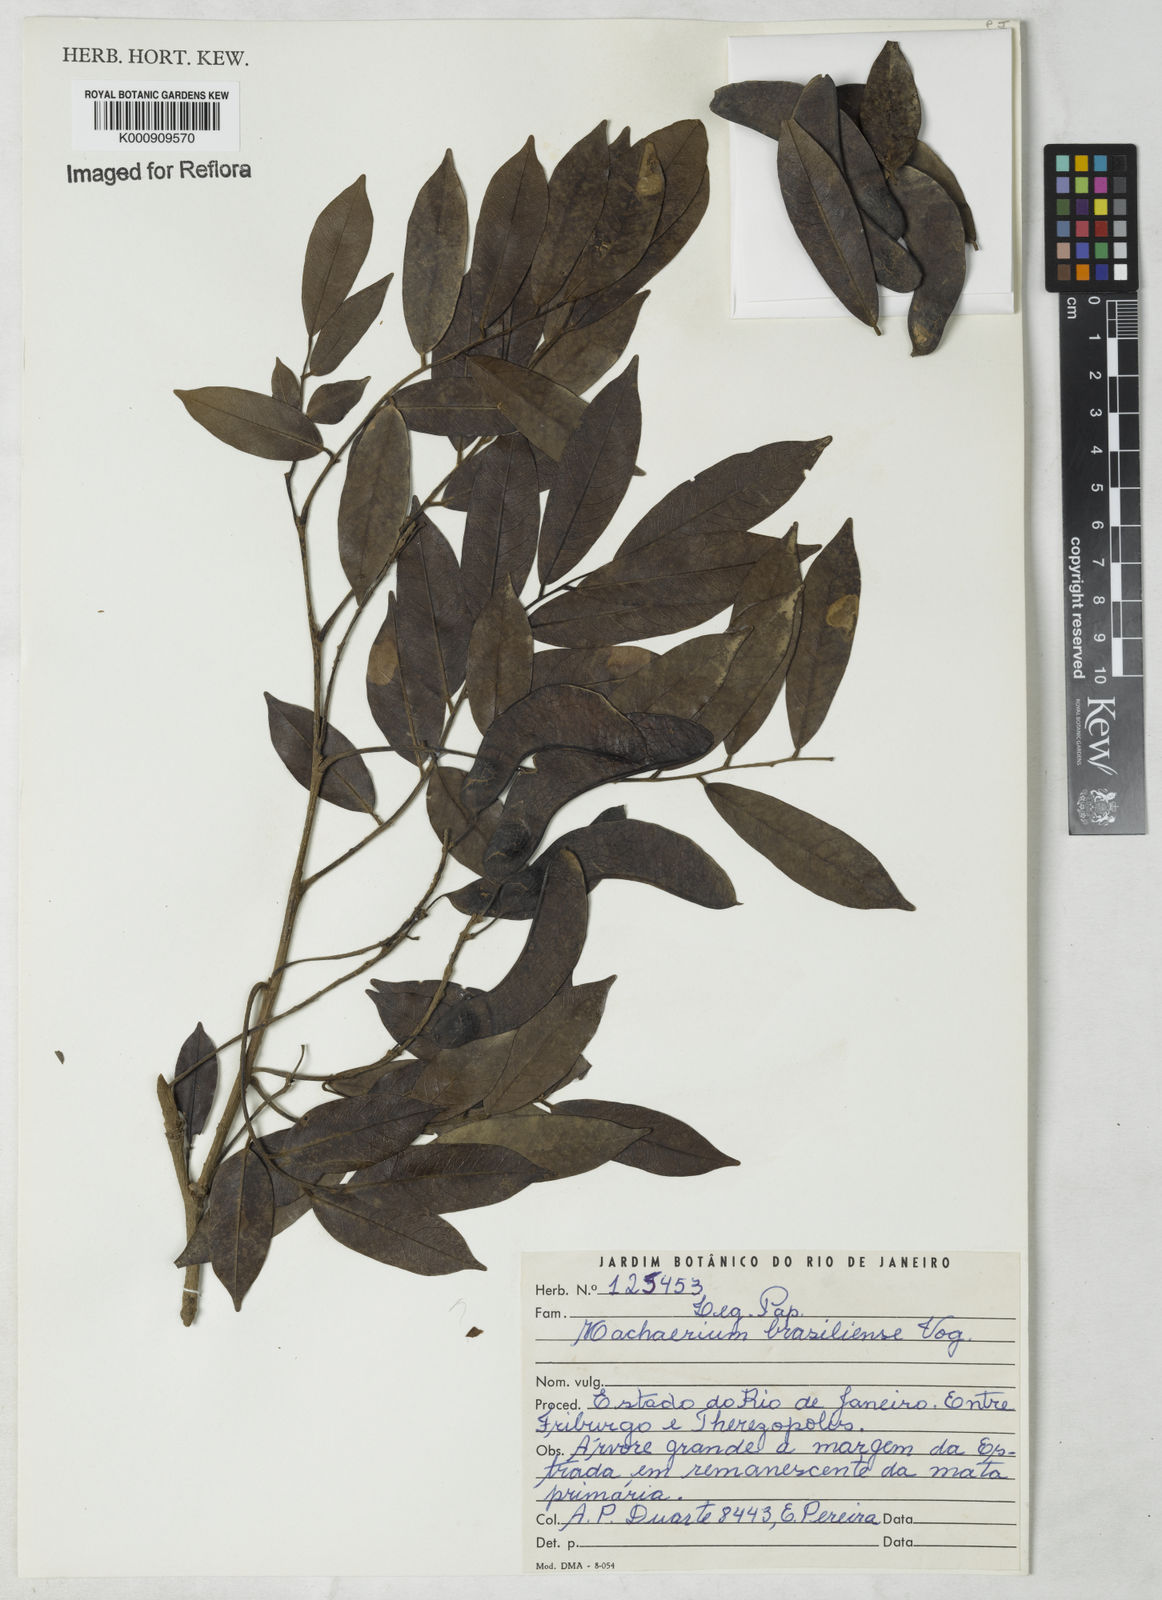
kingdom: Plantae
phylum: Tracheophyta
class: Magnoliopsida
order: Fabales
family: Fabaceae
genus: Machaerium
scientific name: Machaerium brasiliense
